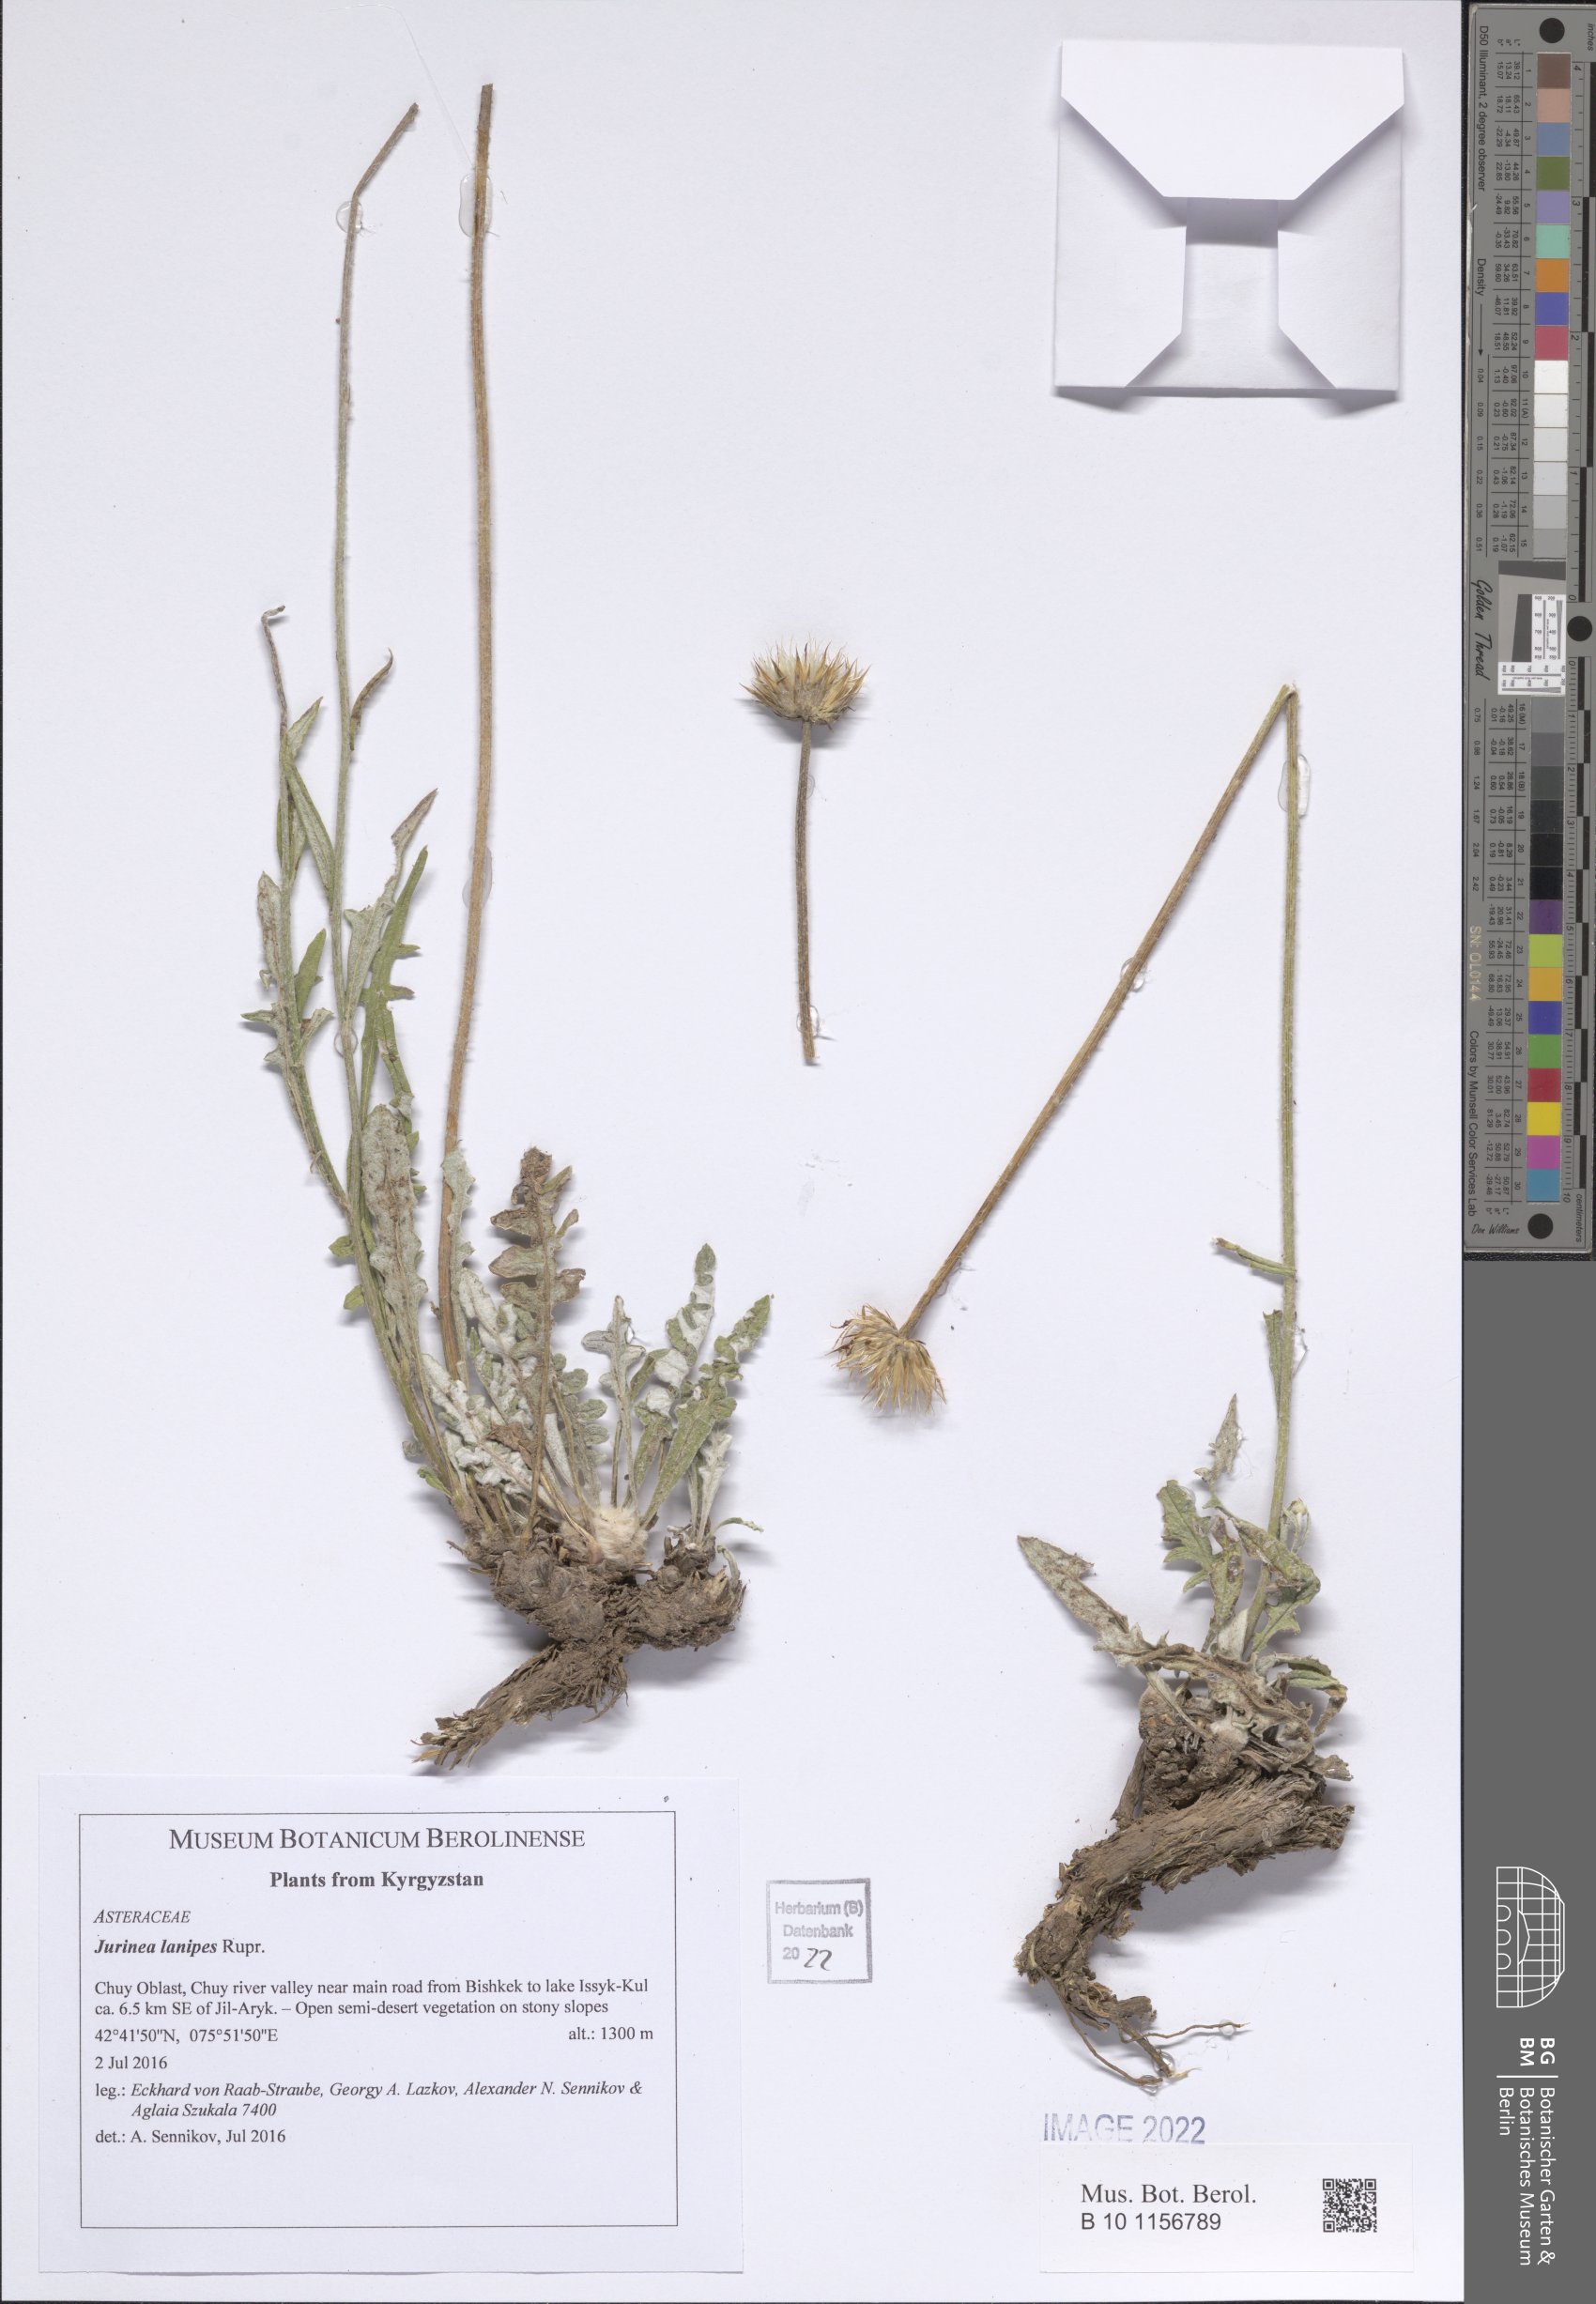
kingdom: Plantae
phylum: Tracheophyta
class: Magnoliopsida
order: Asterales
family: Asteraceae
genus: Jurinea
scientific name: Jurinea lanipes
